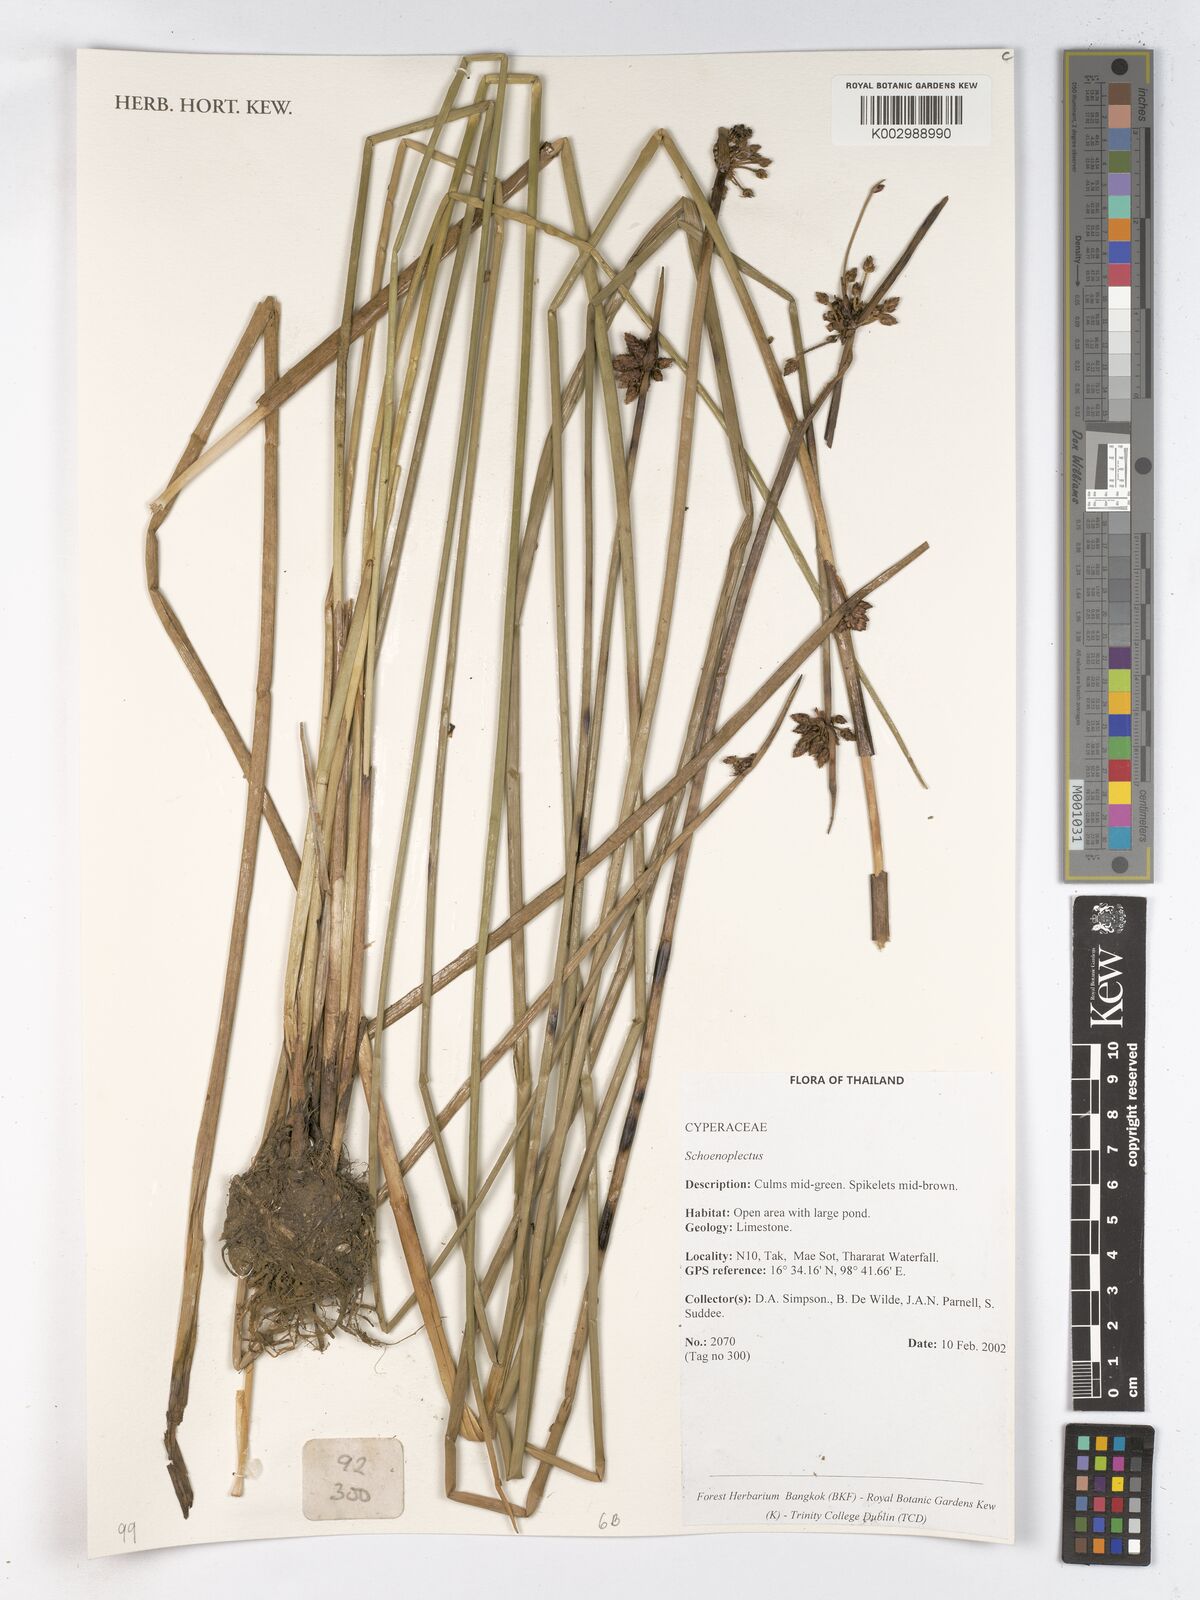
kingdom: Plantae
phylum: Tracheophyta
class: Liliopsida
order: Poales
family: Cyperaceae
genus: Schoenoplectus
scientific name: Schoenoplectus
